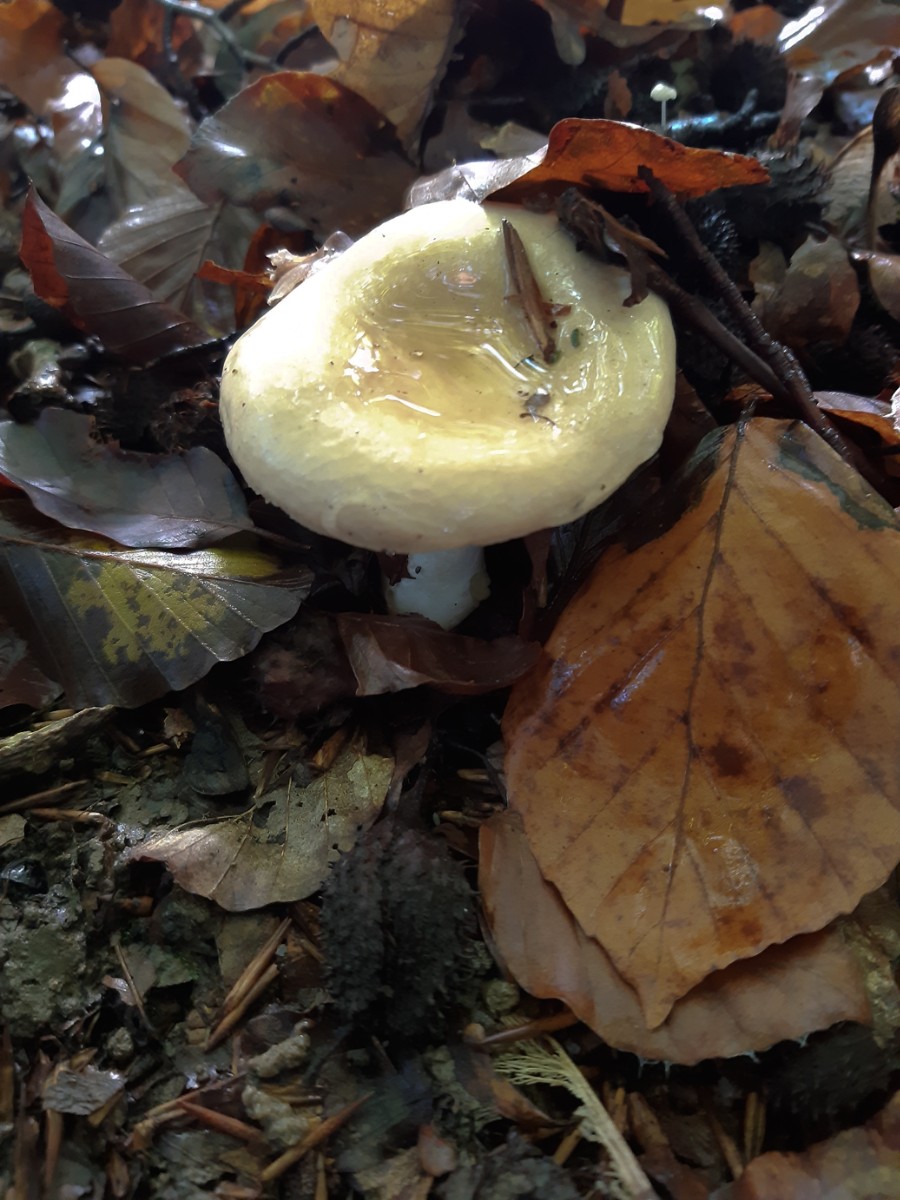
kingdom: Fungi
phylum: Basidiomycota
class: Agaricomycetes
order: Russulales
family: Russulaceae
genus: Russula
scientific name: Russula ochroleuca
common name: okkergul skørhat
